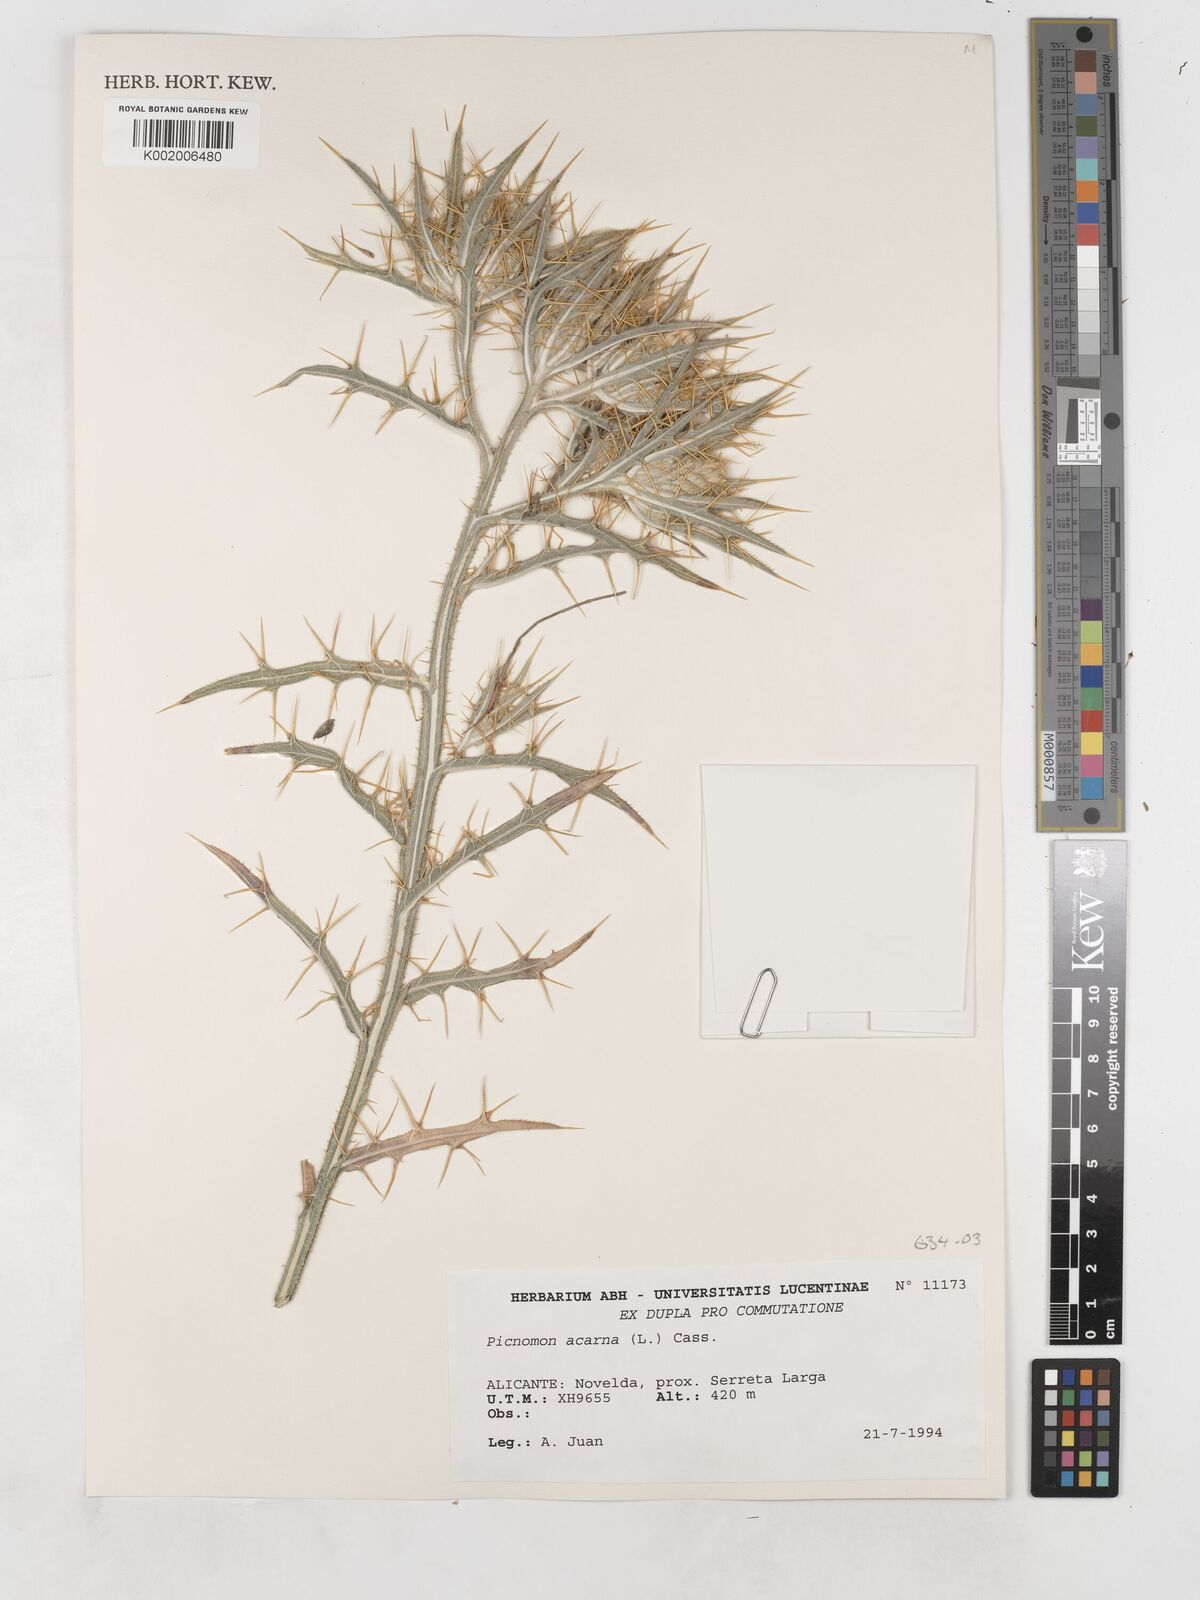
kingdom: Plantae
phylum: Tracheophyta
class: Magnoliopsida
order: Asterales
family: Asteraceae
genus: Picnomon
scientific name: Picnomon acarna
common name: Soldier thistle
